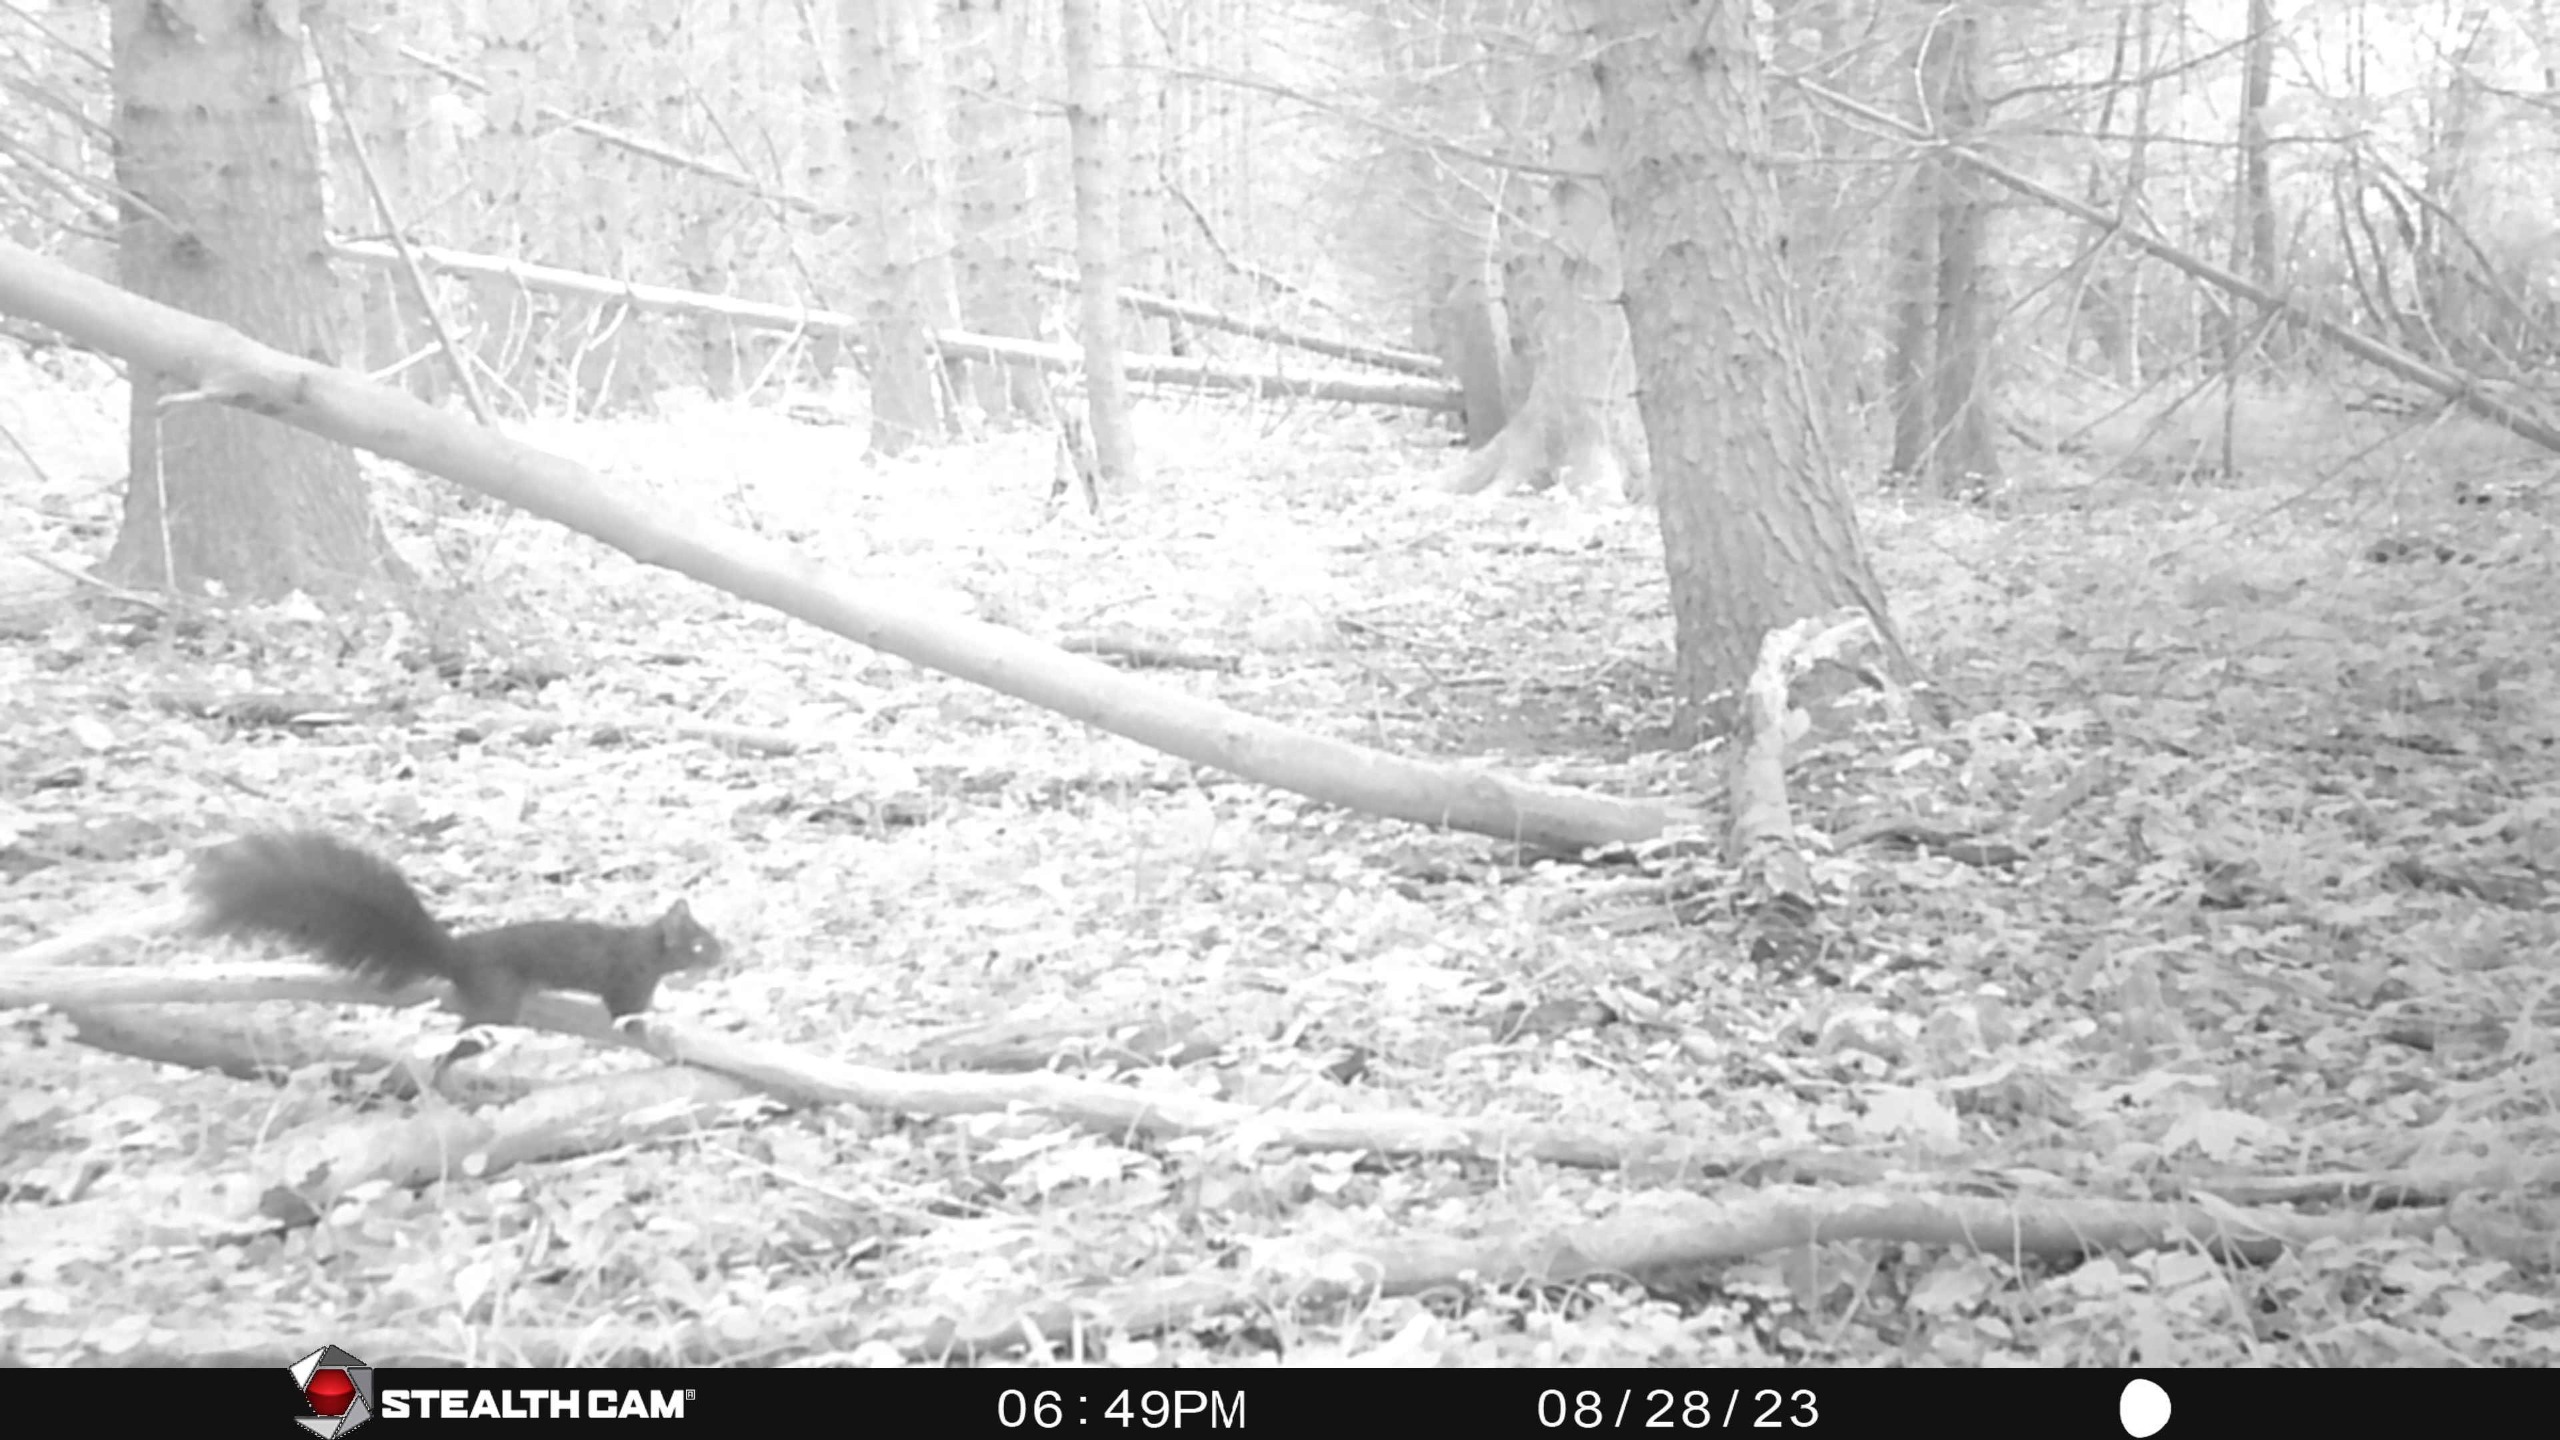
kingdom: Animalia
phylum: Chordata
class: Mammalia
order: Rodentia
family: Sciuridae
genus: Sciurus
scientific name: Sciurus vulgaris
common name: Egern
